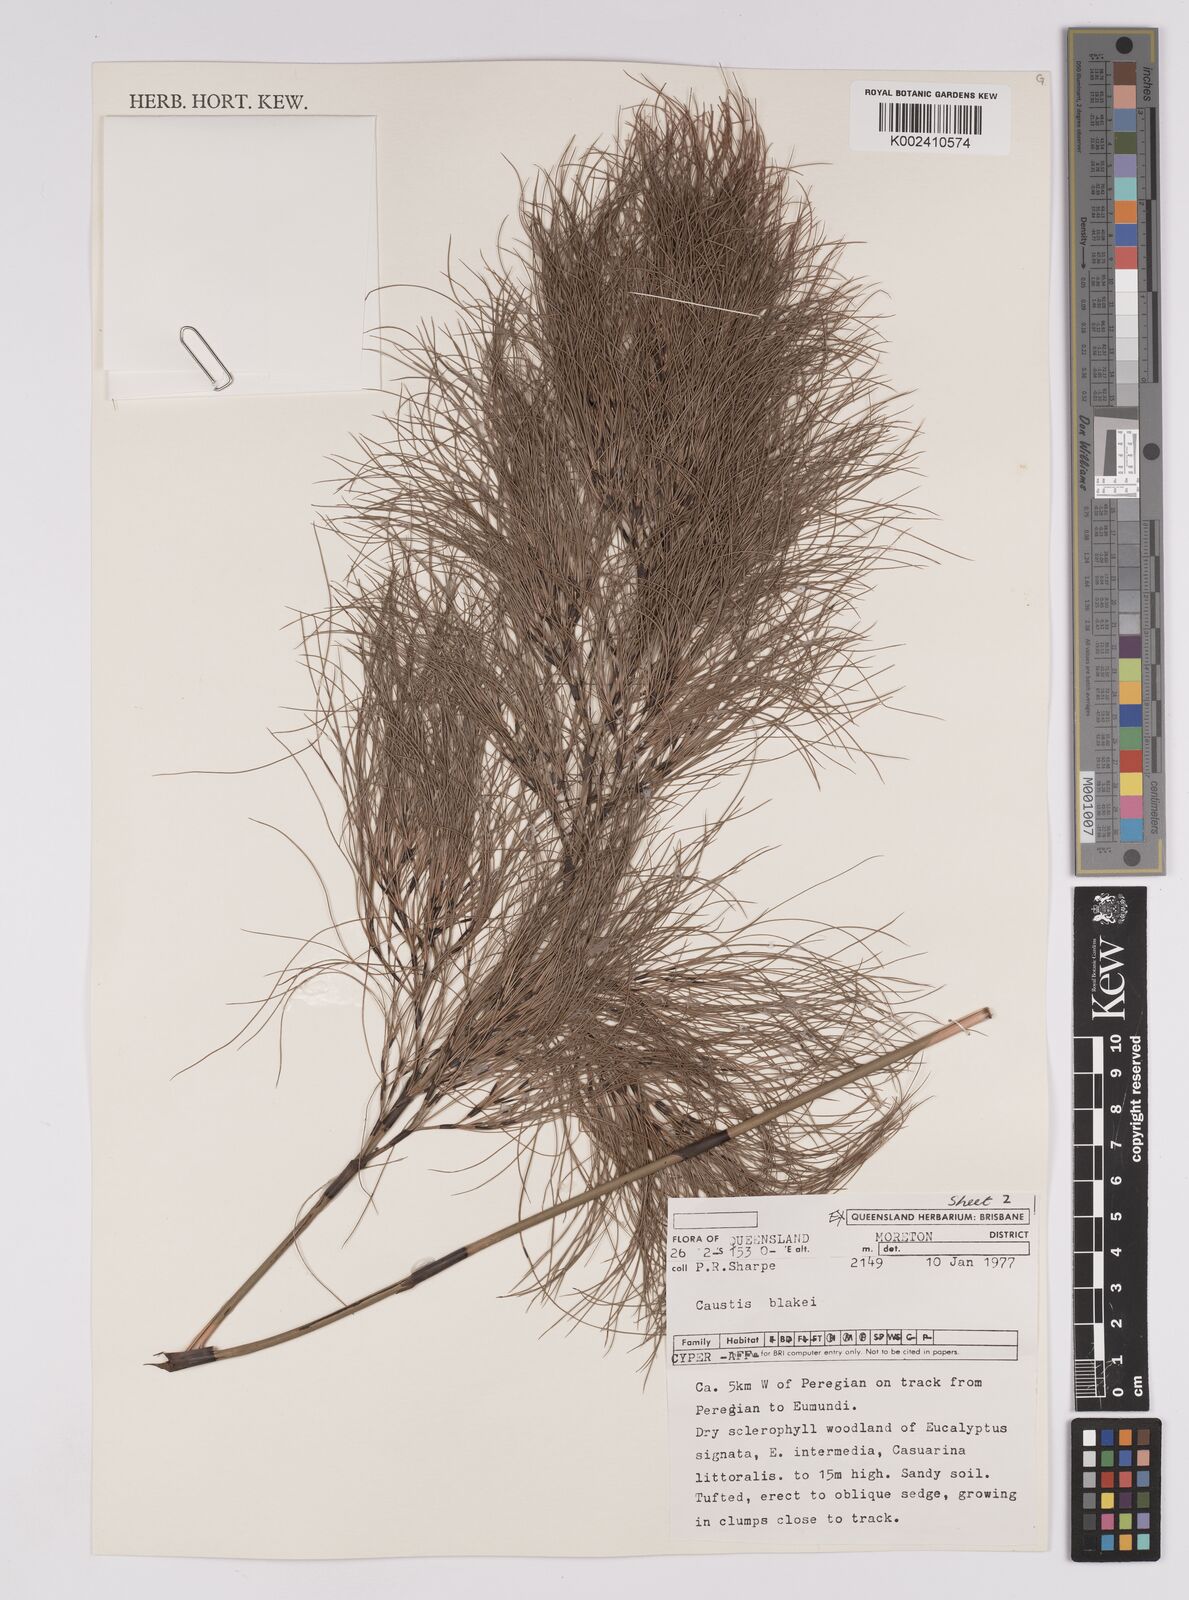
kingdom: Plantae
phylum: Tracheophyta
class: Liliopsida
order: Poales
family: Cyperaceae
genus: Caustis
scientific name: Caustis blakei
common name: Foxtail-fern
